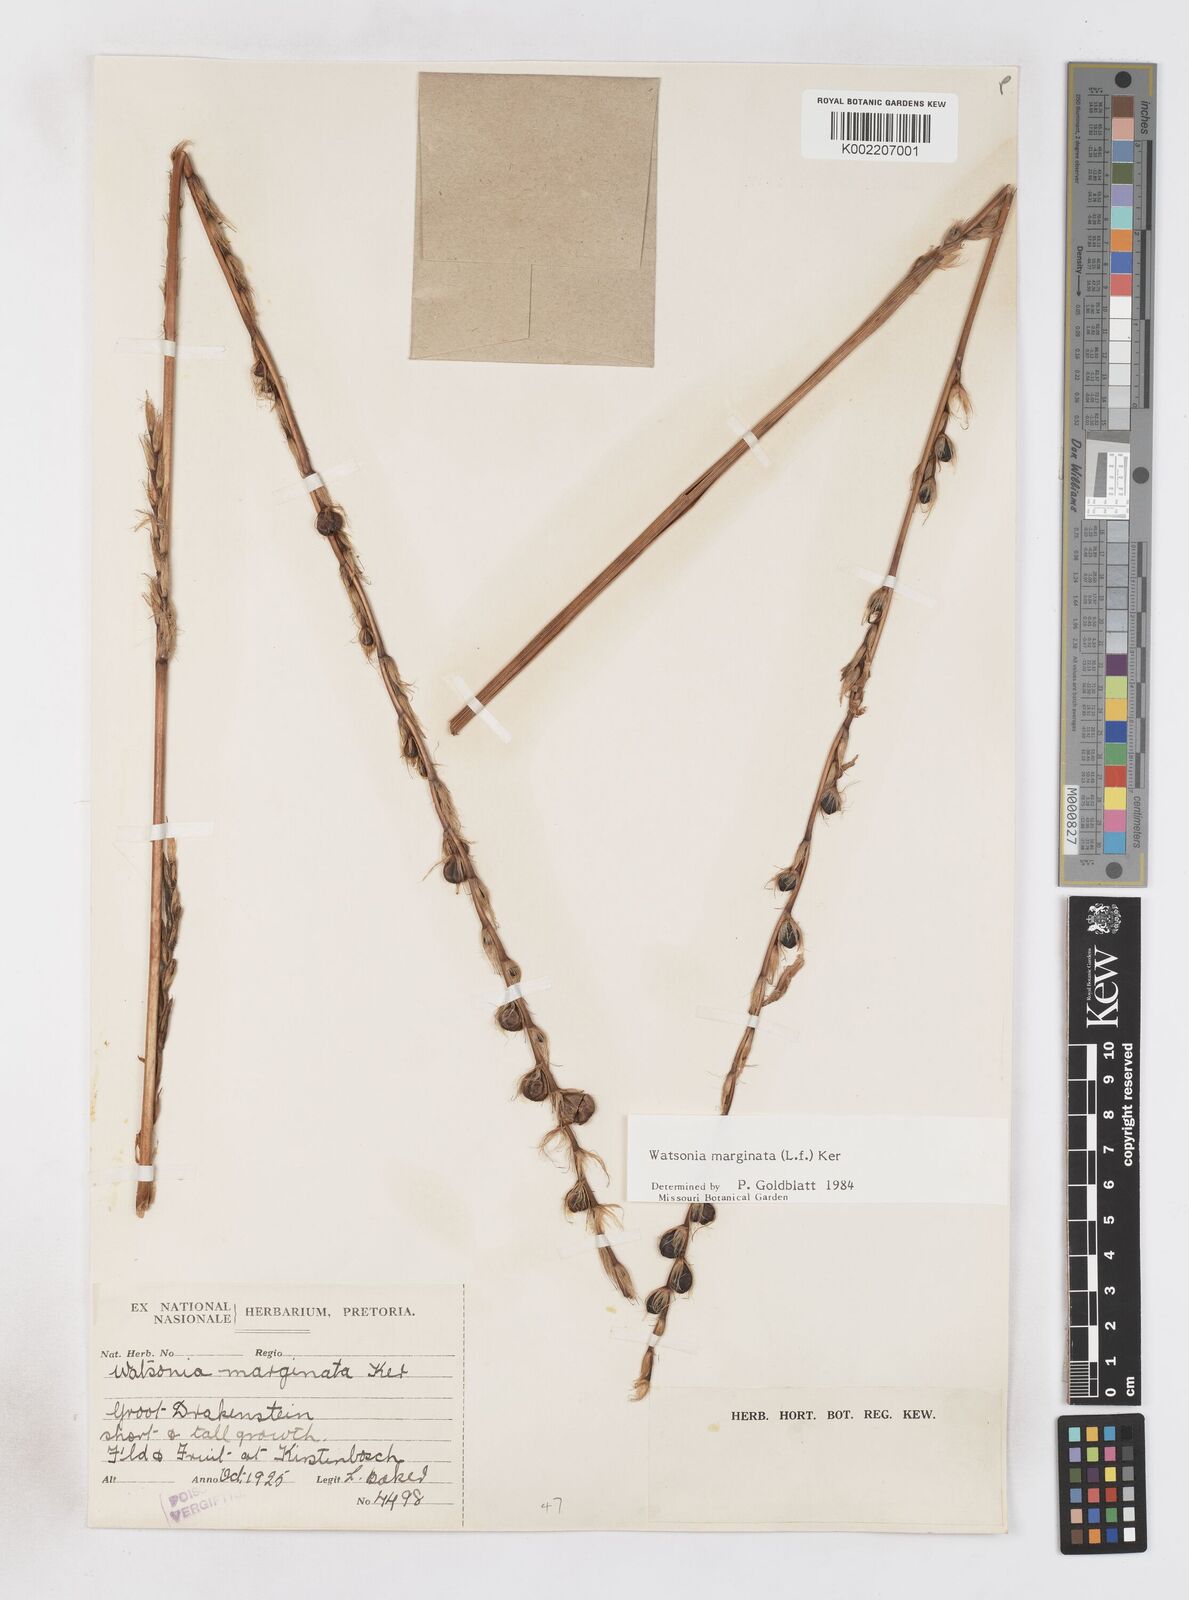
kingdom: Plantae
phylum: Tracheophyta
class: Liliopsida
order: Asparagales
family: Iridaceae
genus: Watsonia
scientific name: Watsonia marginata
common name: Fragrant bugle-lily
